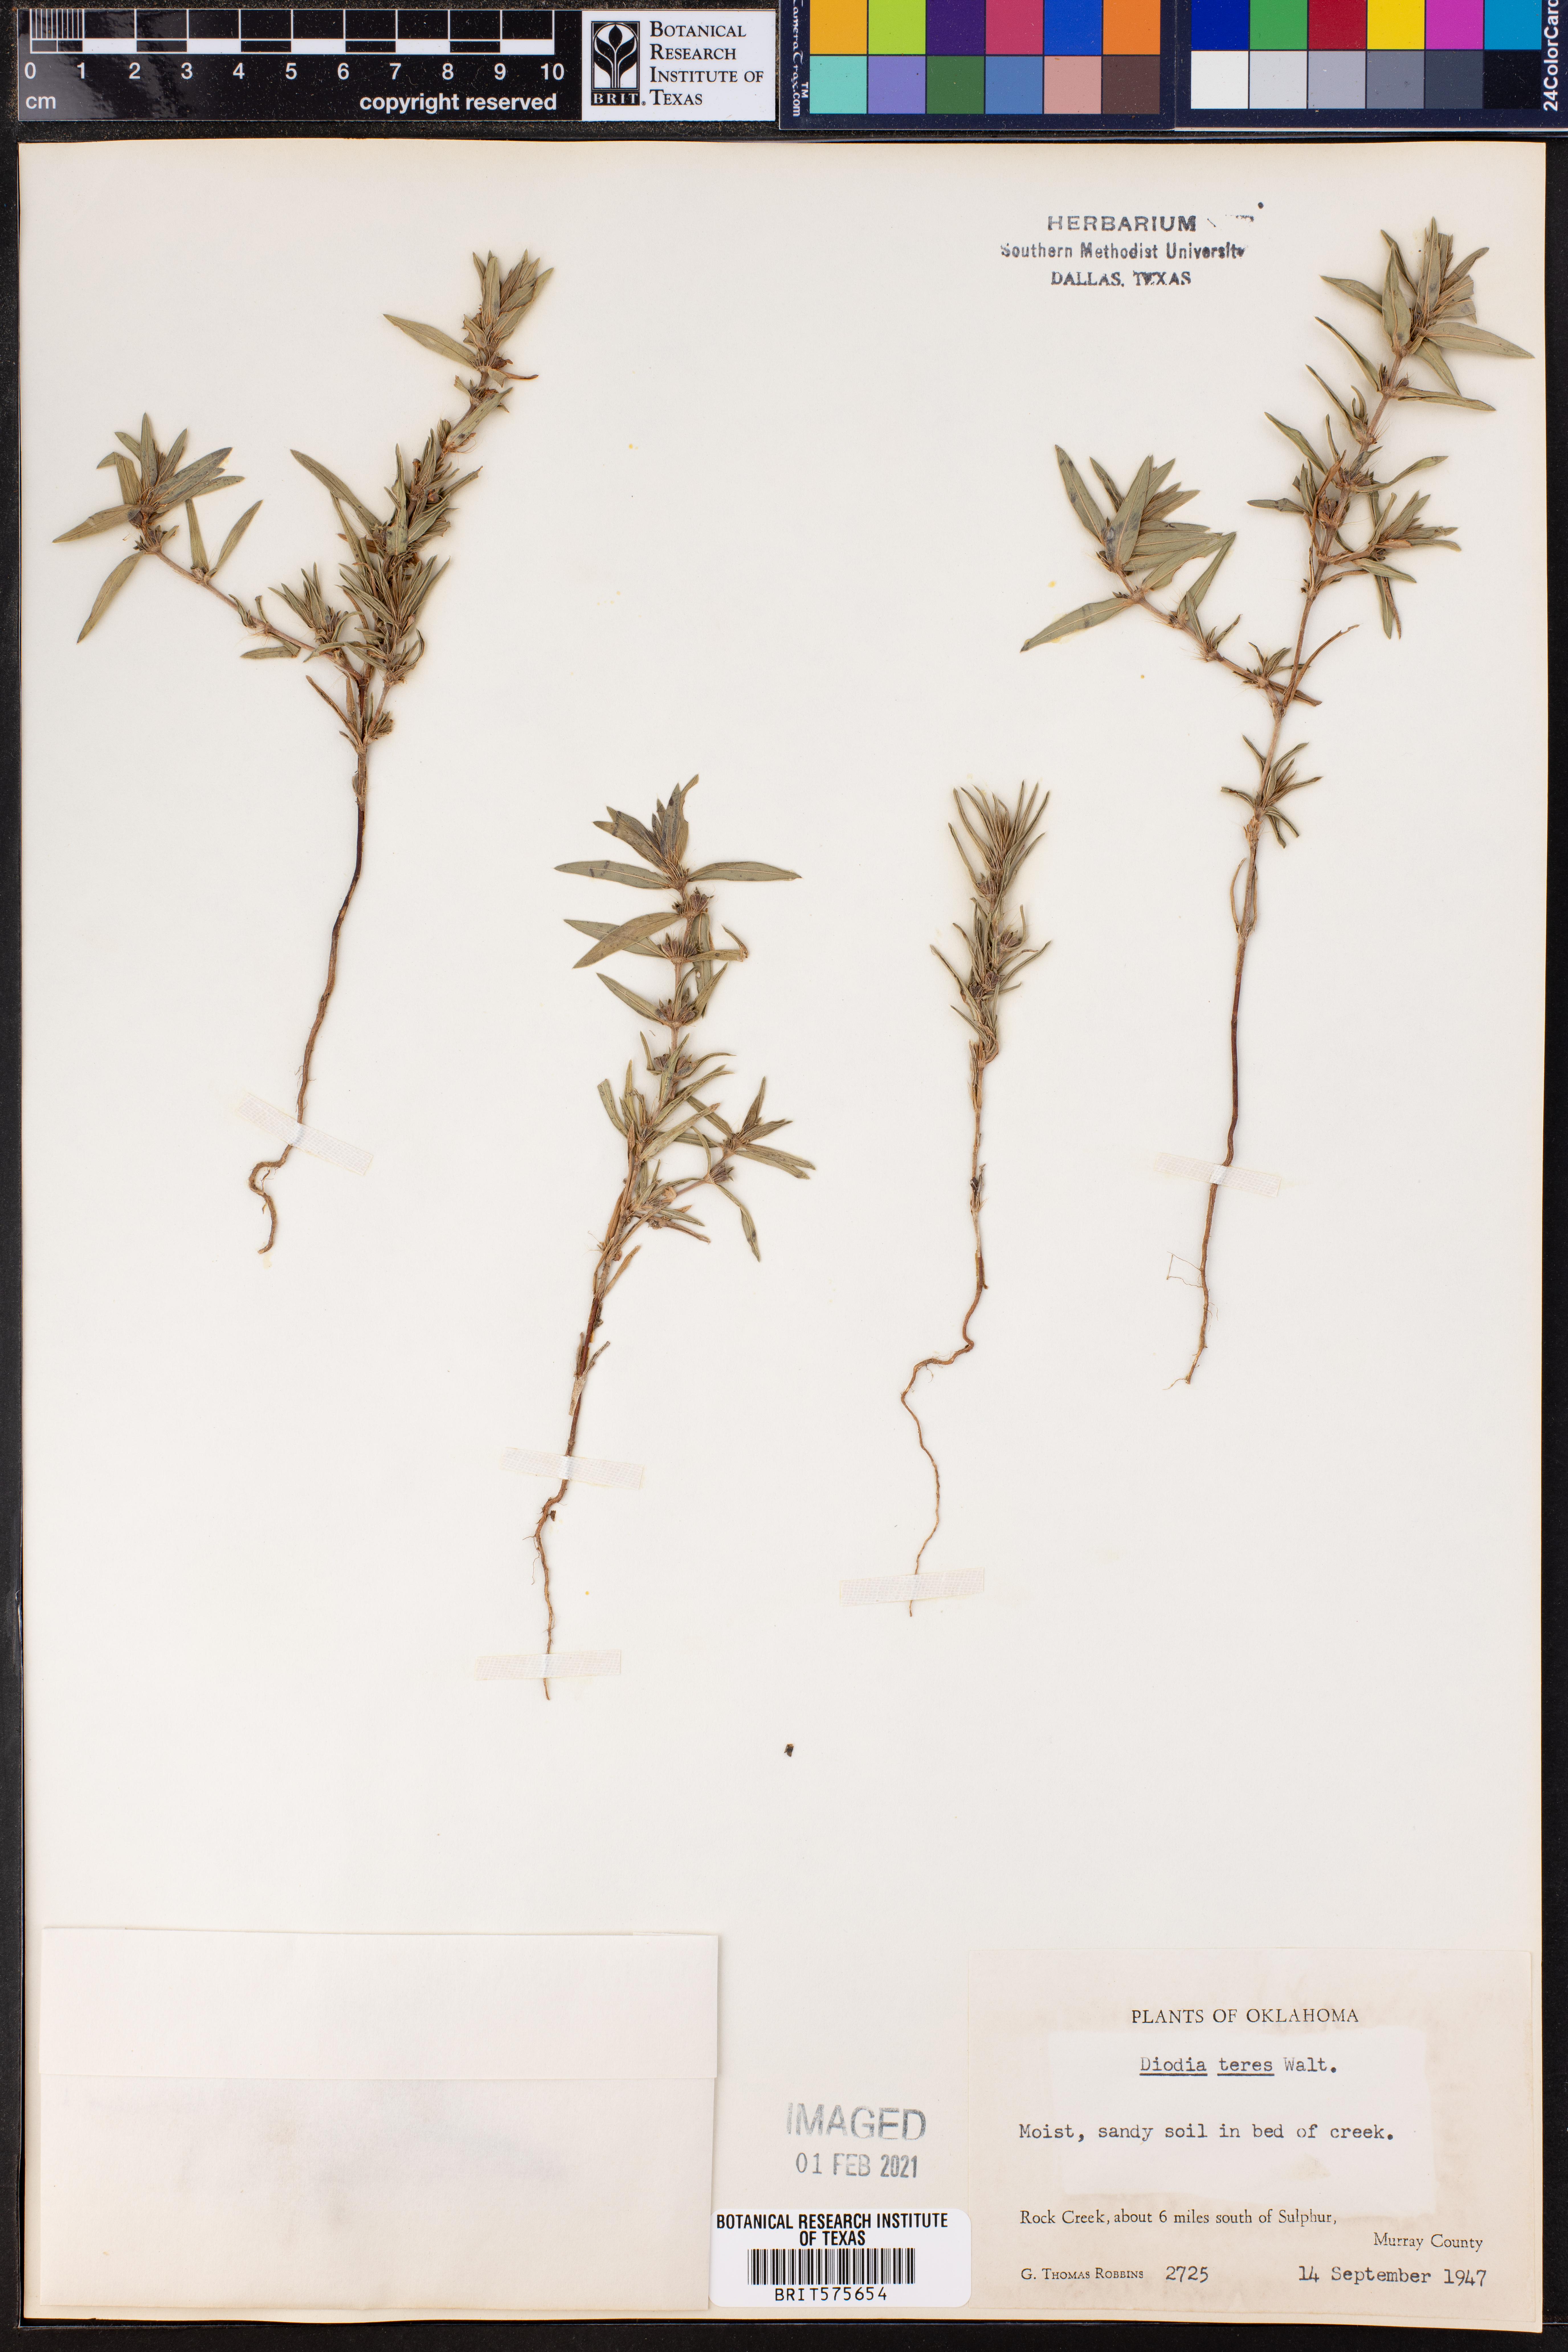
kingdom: Plantae
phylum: Tracheophyta
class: Magnoliopsida
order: Gentianales
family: Rubiaceae
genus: Hexasepalum
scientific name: Hexasepalum teres
